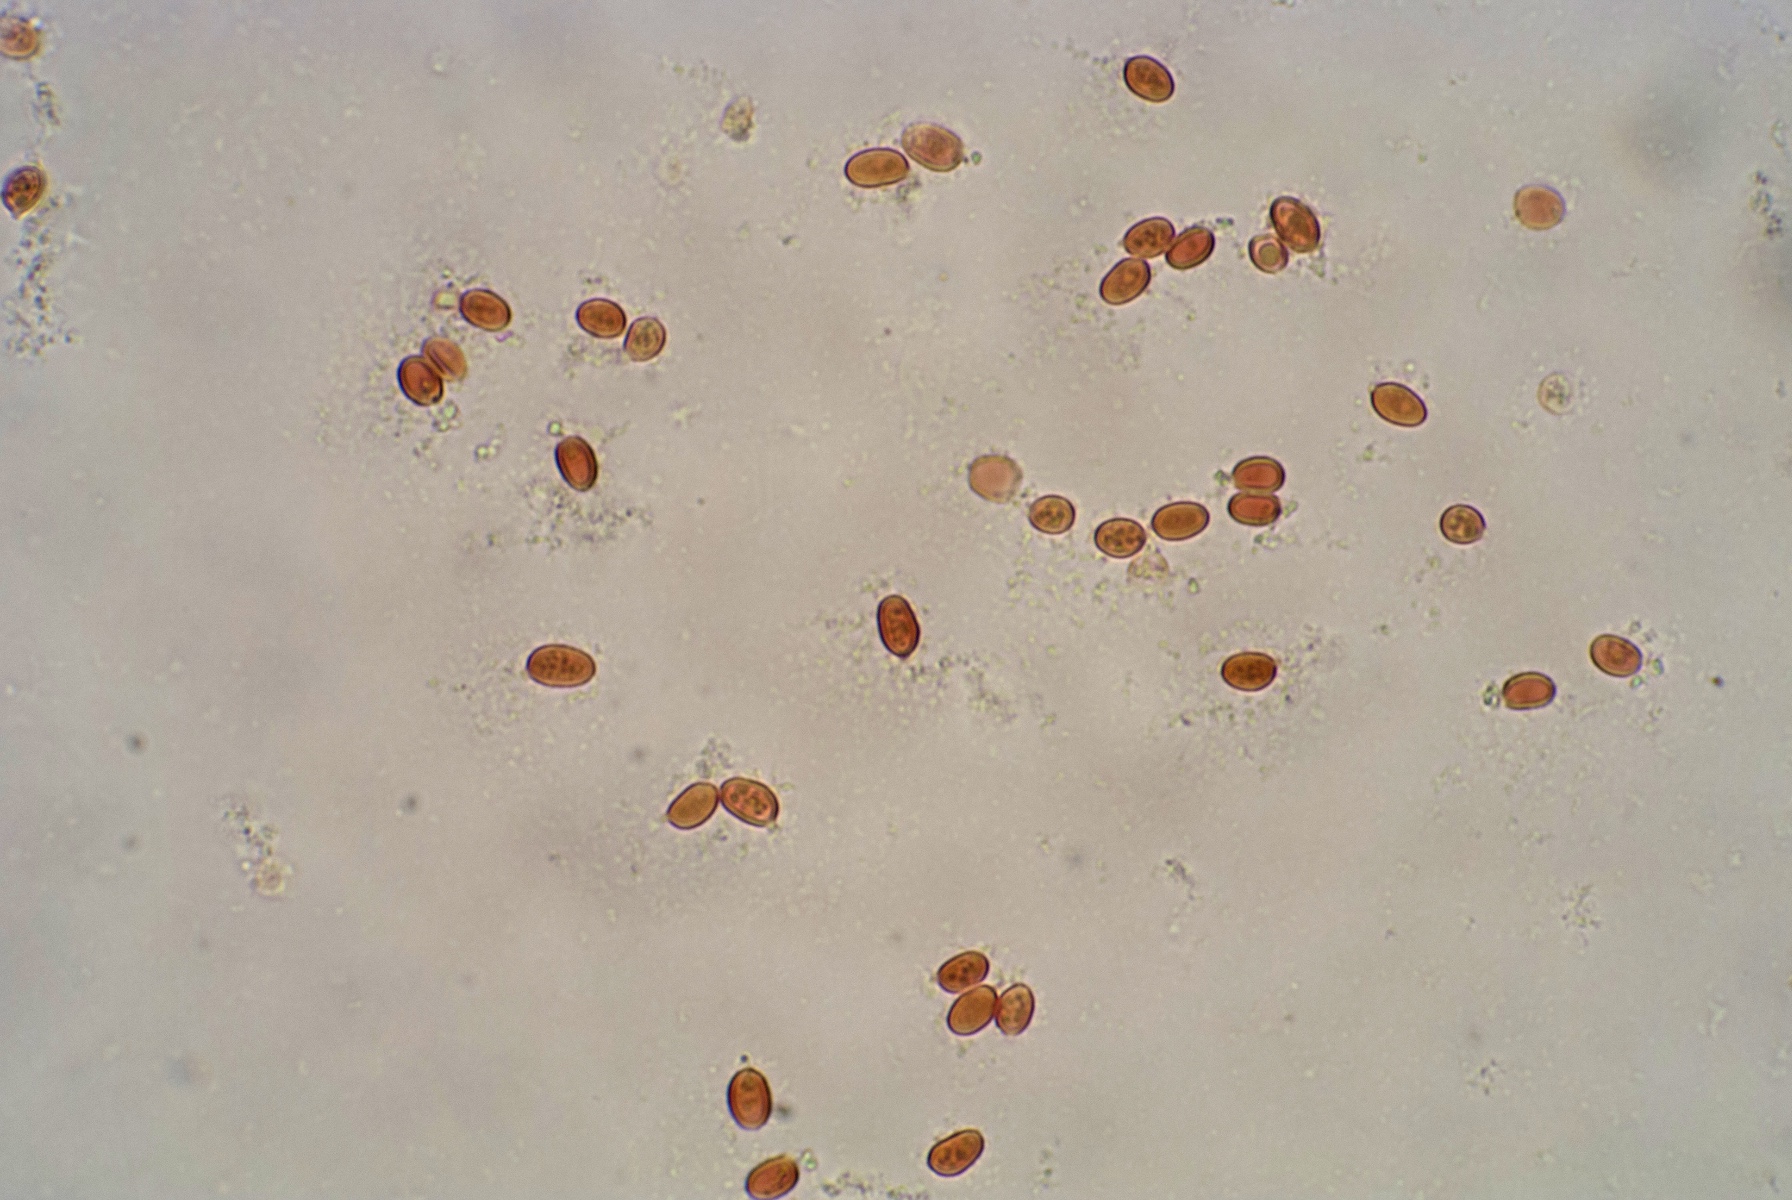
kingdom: Fungi
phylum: Basidiomycota
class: Agaricomycetes
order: Agaricales
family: Agaricaceae
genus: Lepiota
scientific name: Lepiota ochraceofulva
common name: sødtduftende parasolhat
